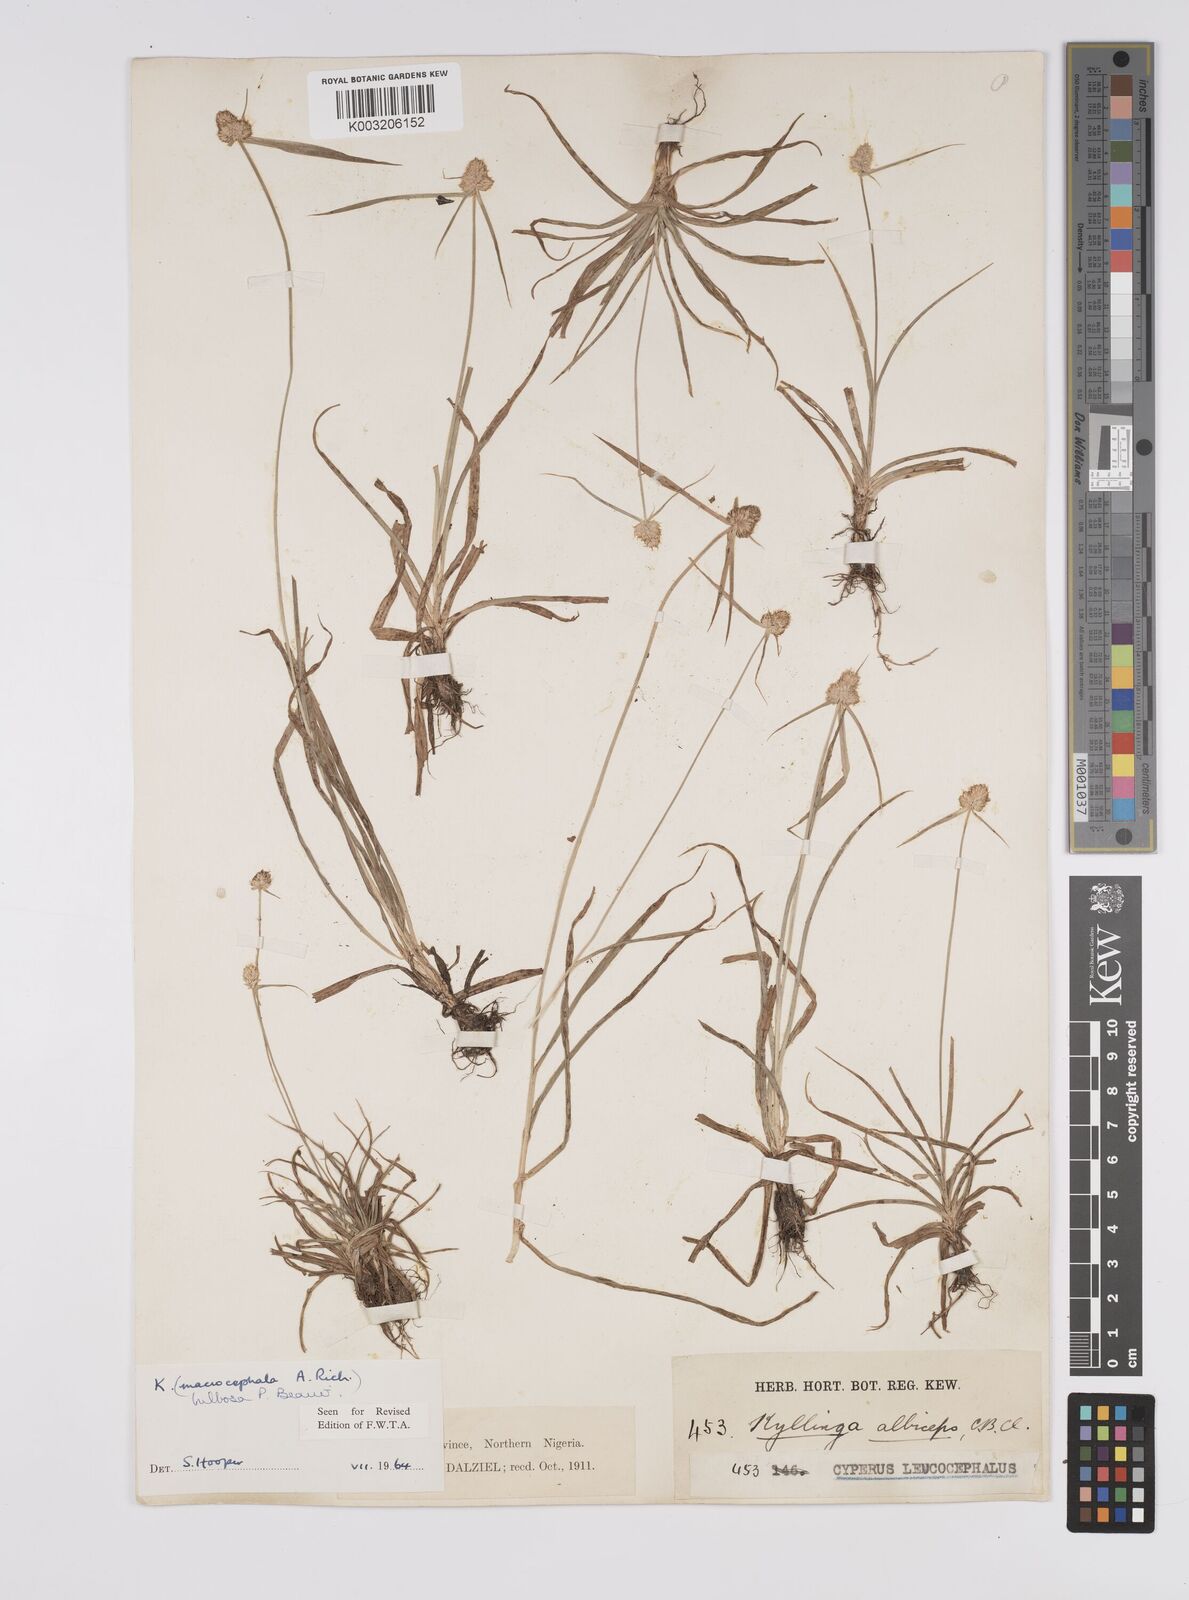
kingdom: Plantae
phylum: Tracheophyta
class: Liliopsida
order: Poales
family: Cyperaceae
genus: Cyperus
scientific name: Cyperus
